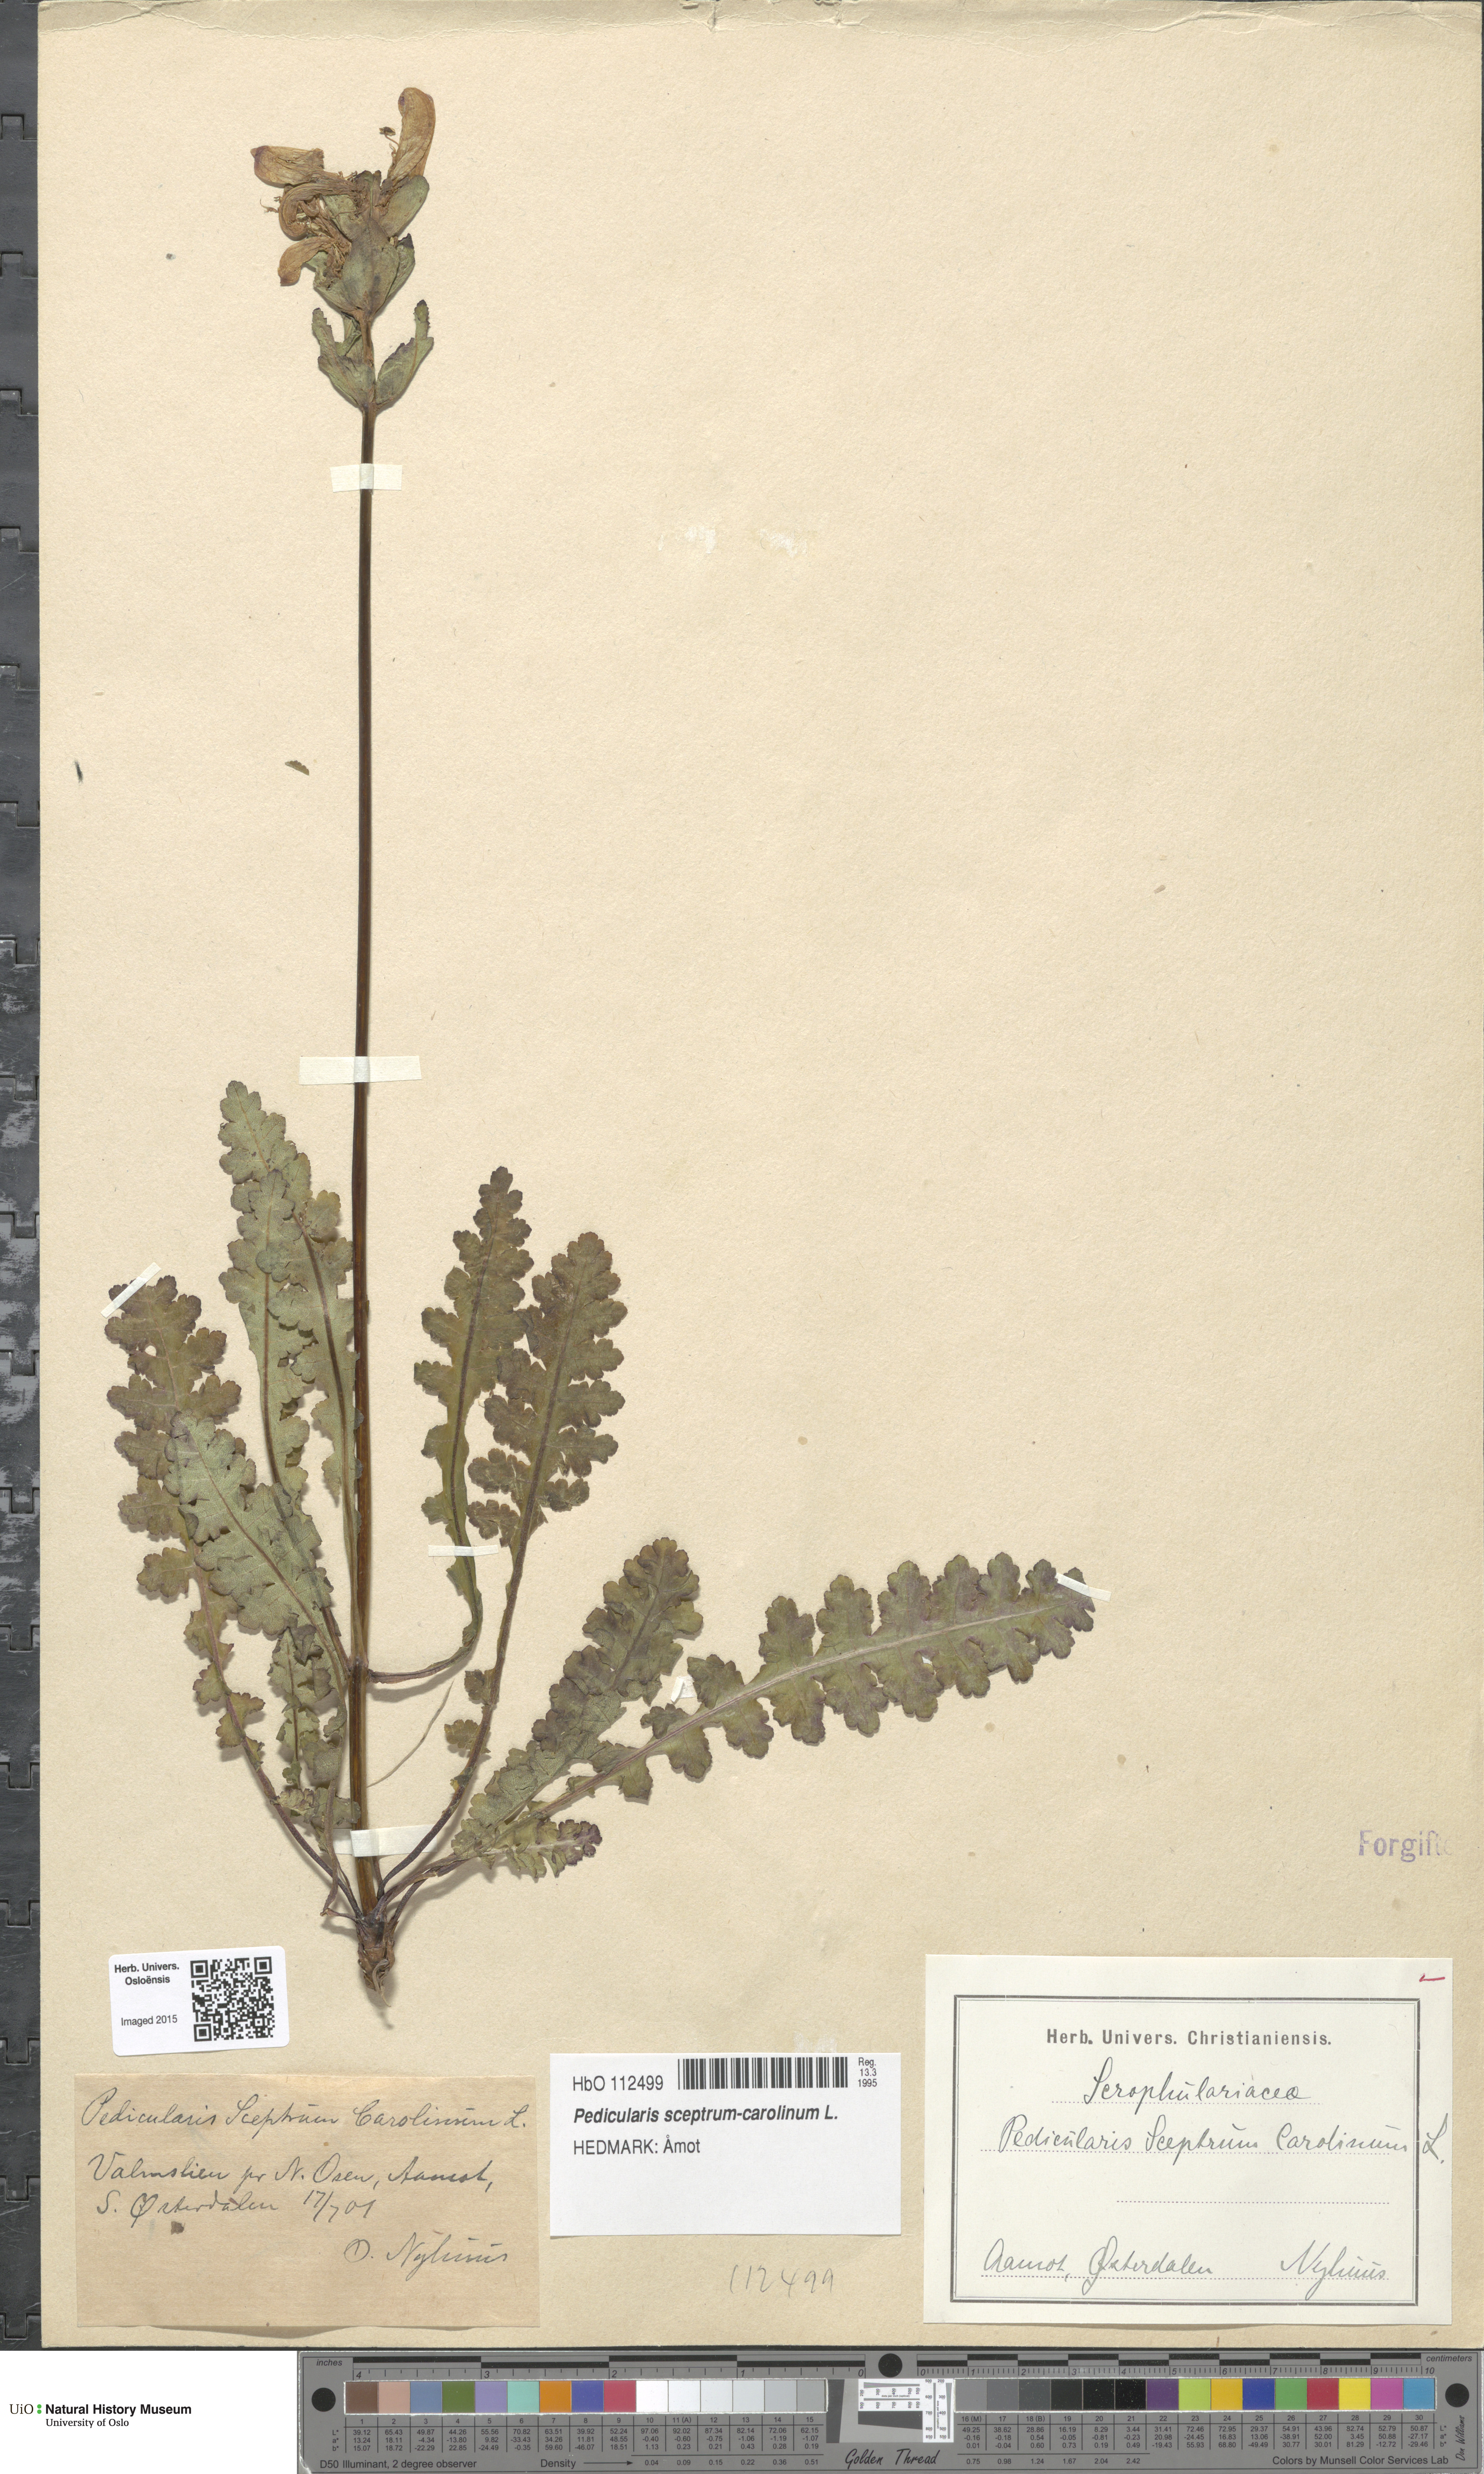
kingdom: Plantae
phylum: Tracheophyta
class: Magnoliopsida
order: Lamiales
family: Orobanchaceae
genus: Pedicularis
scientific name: Pedicularis sceptrum-carolinum
